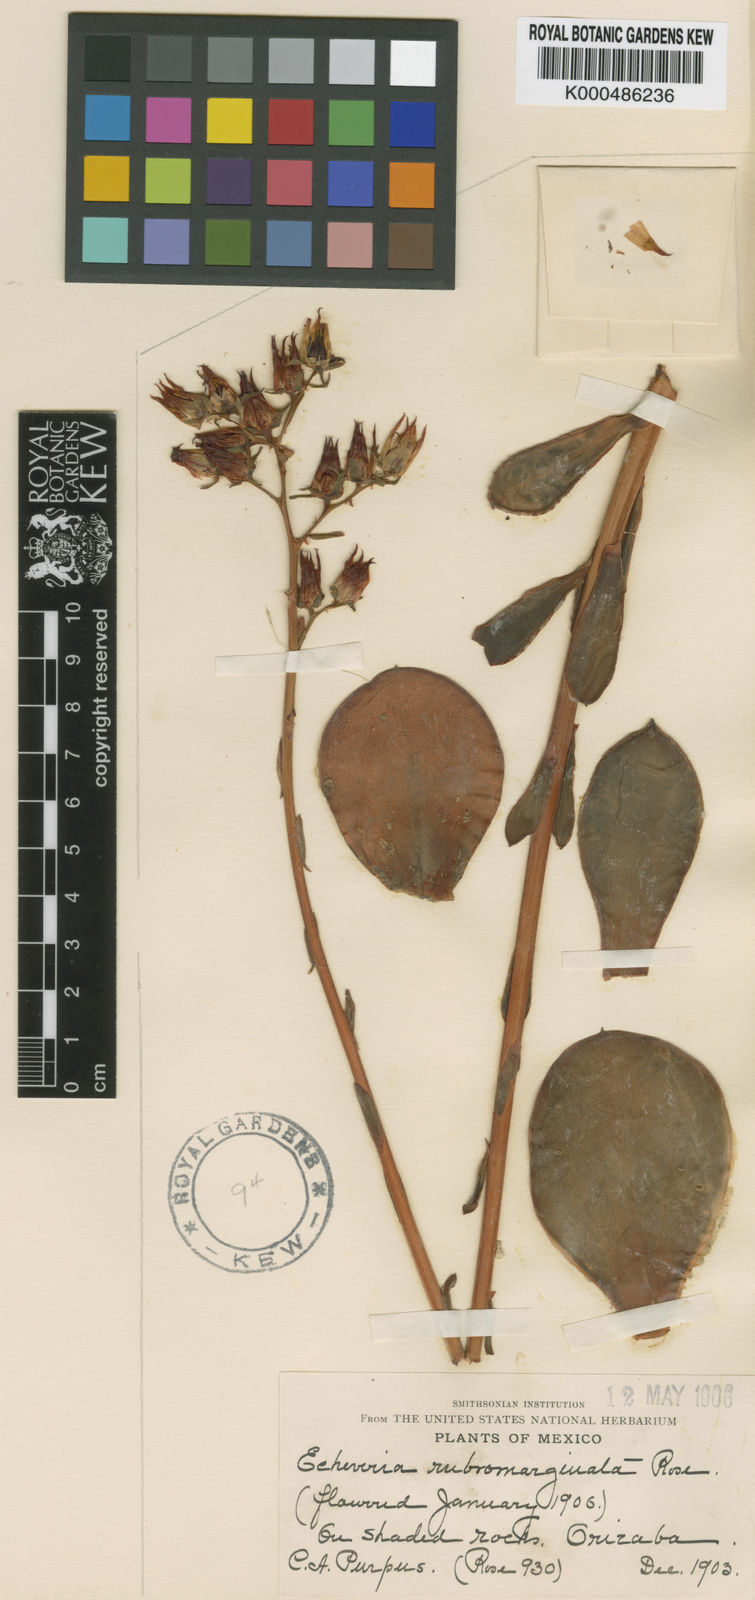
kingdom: Plantae
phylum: Tracheophyta
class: Magnoliopsida
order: Saxifragales
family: Crassulaceae
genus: Echeveria
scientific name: Echeveria rubromarginata
